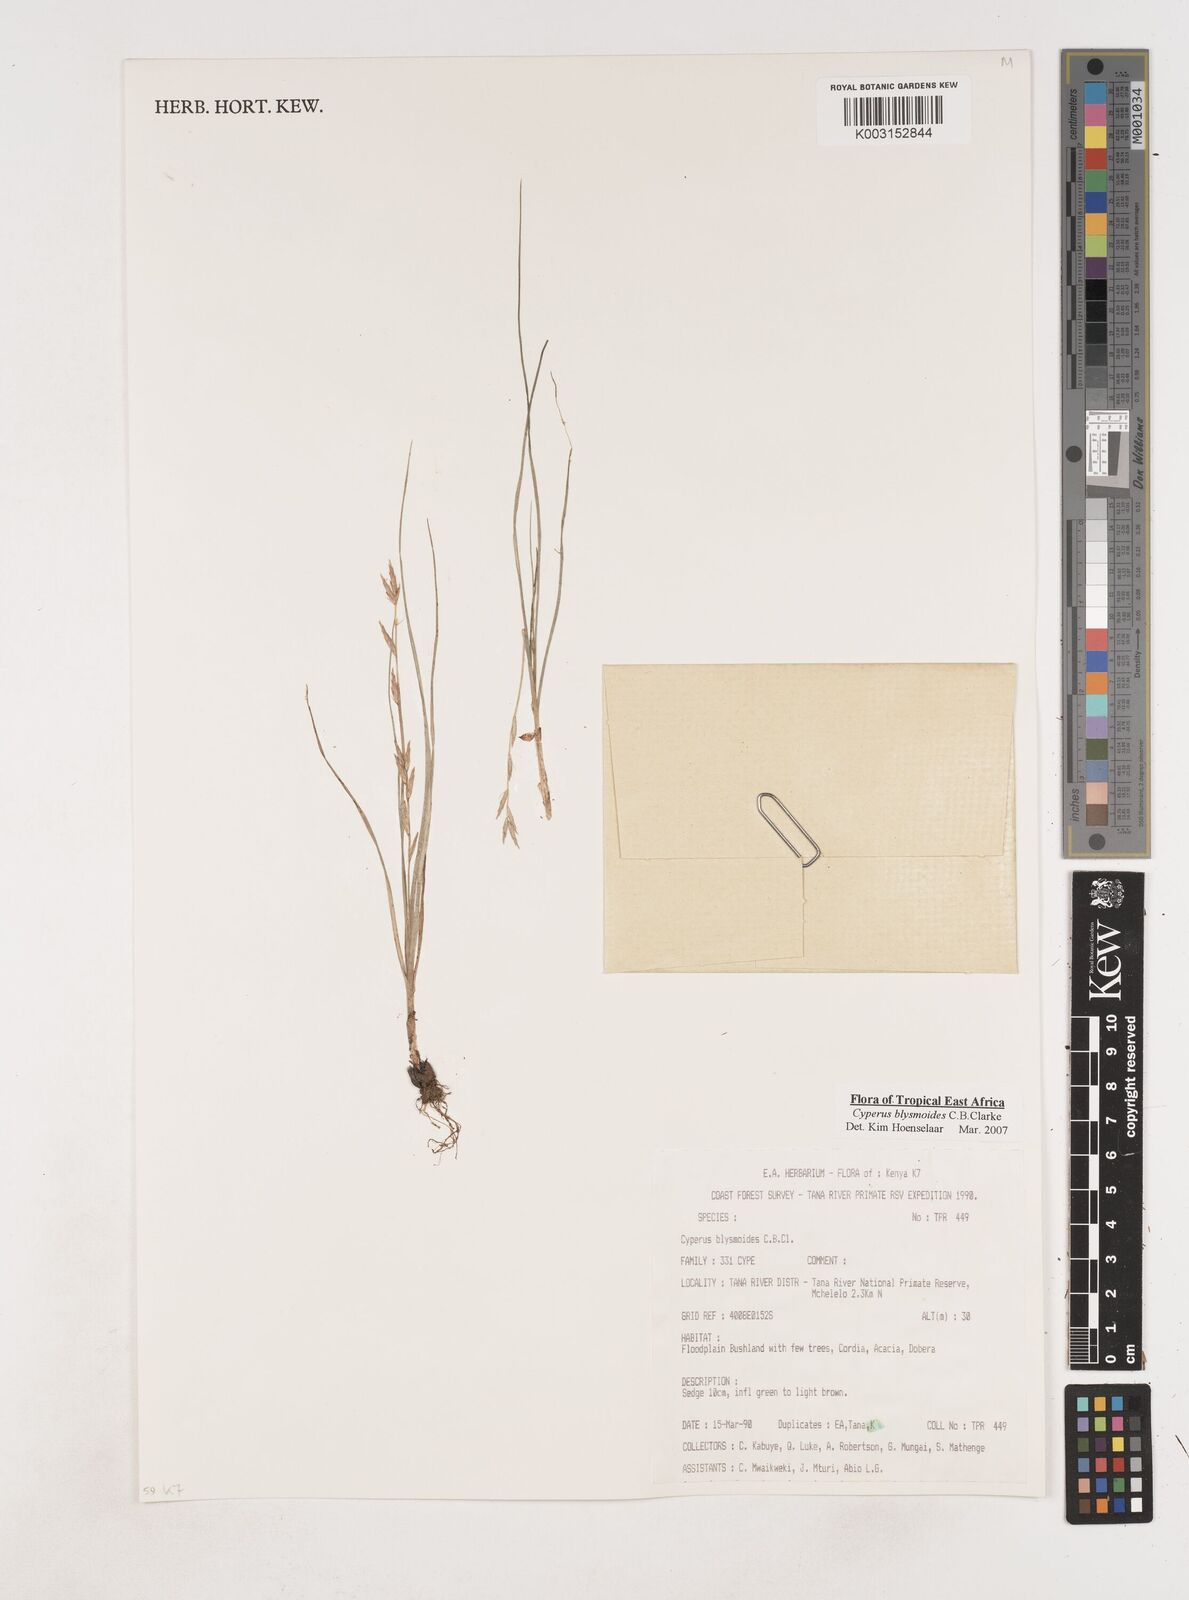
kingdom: Plantae
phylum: Tracheophyta
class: Liliopsida
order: Poales
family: Cyperaceae
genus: Cyperus
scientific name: Cyperus blysmoides
